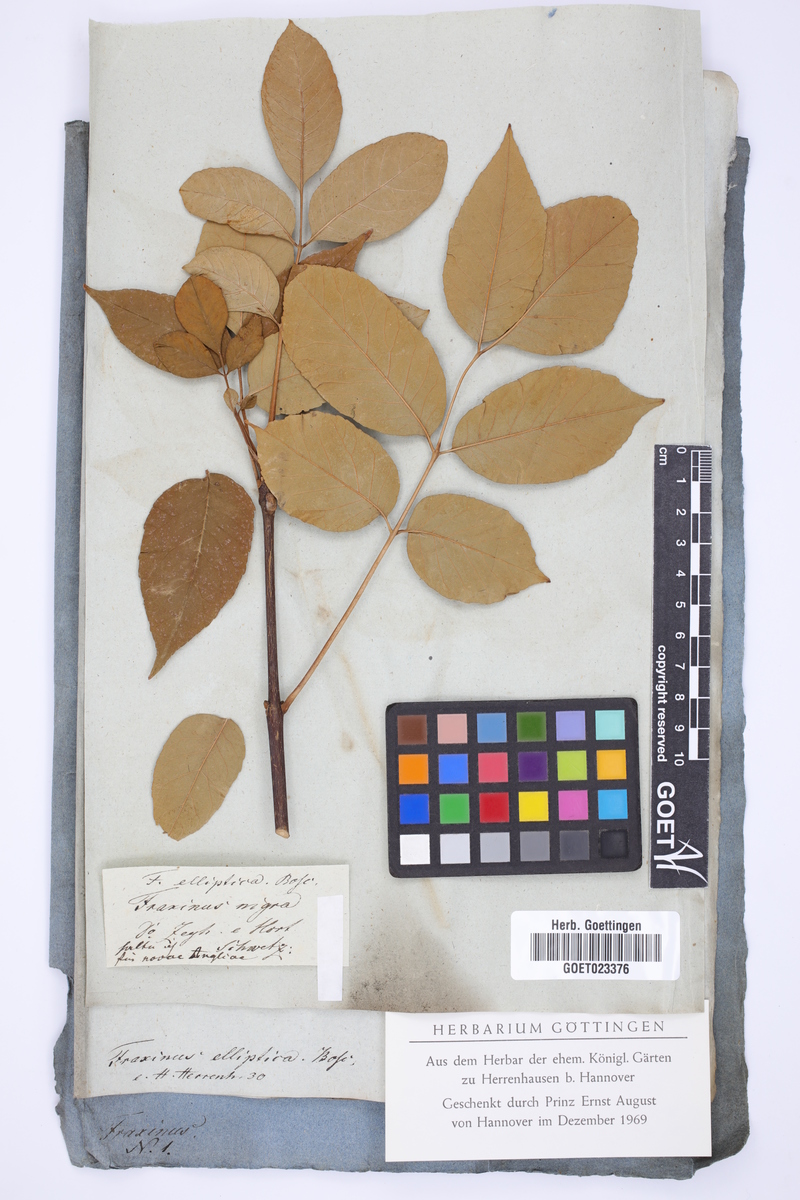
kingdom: Plantae
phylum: Tracheophyta
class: Magnoliopsida
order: Lamiales
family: Oleaceae
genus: Fraxinus
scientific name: Fraxinus pennsylvanica
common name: Green ash
